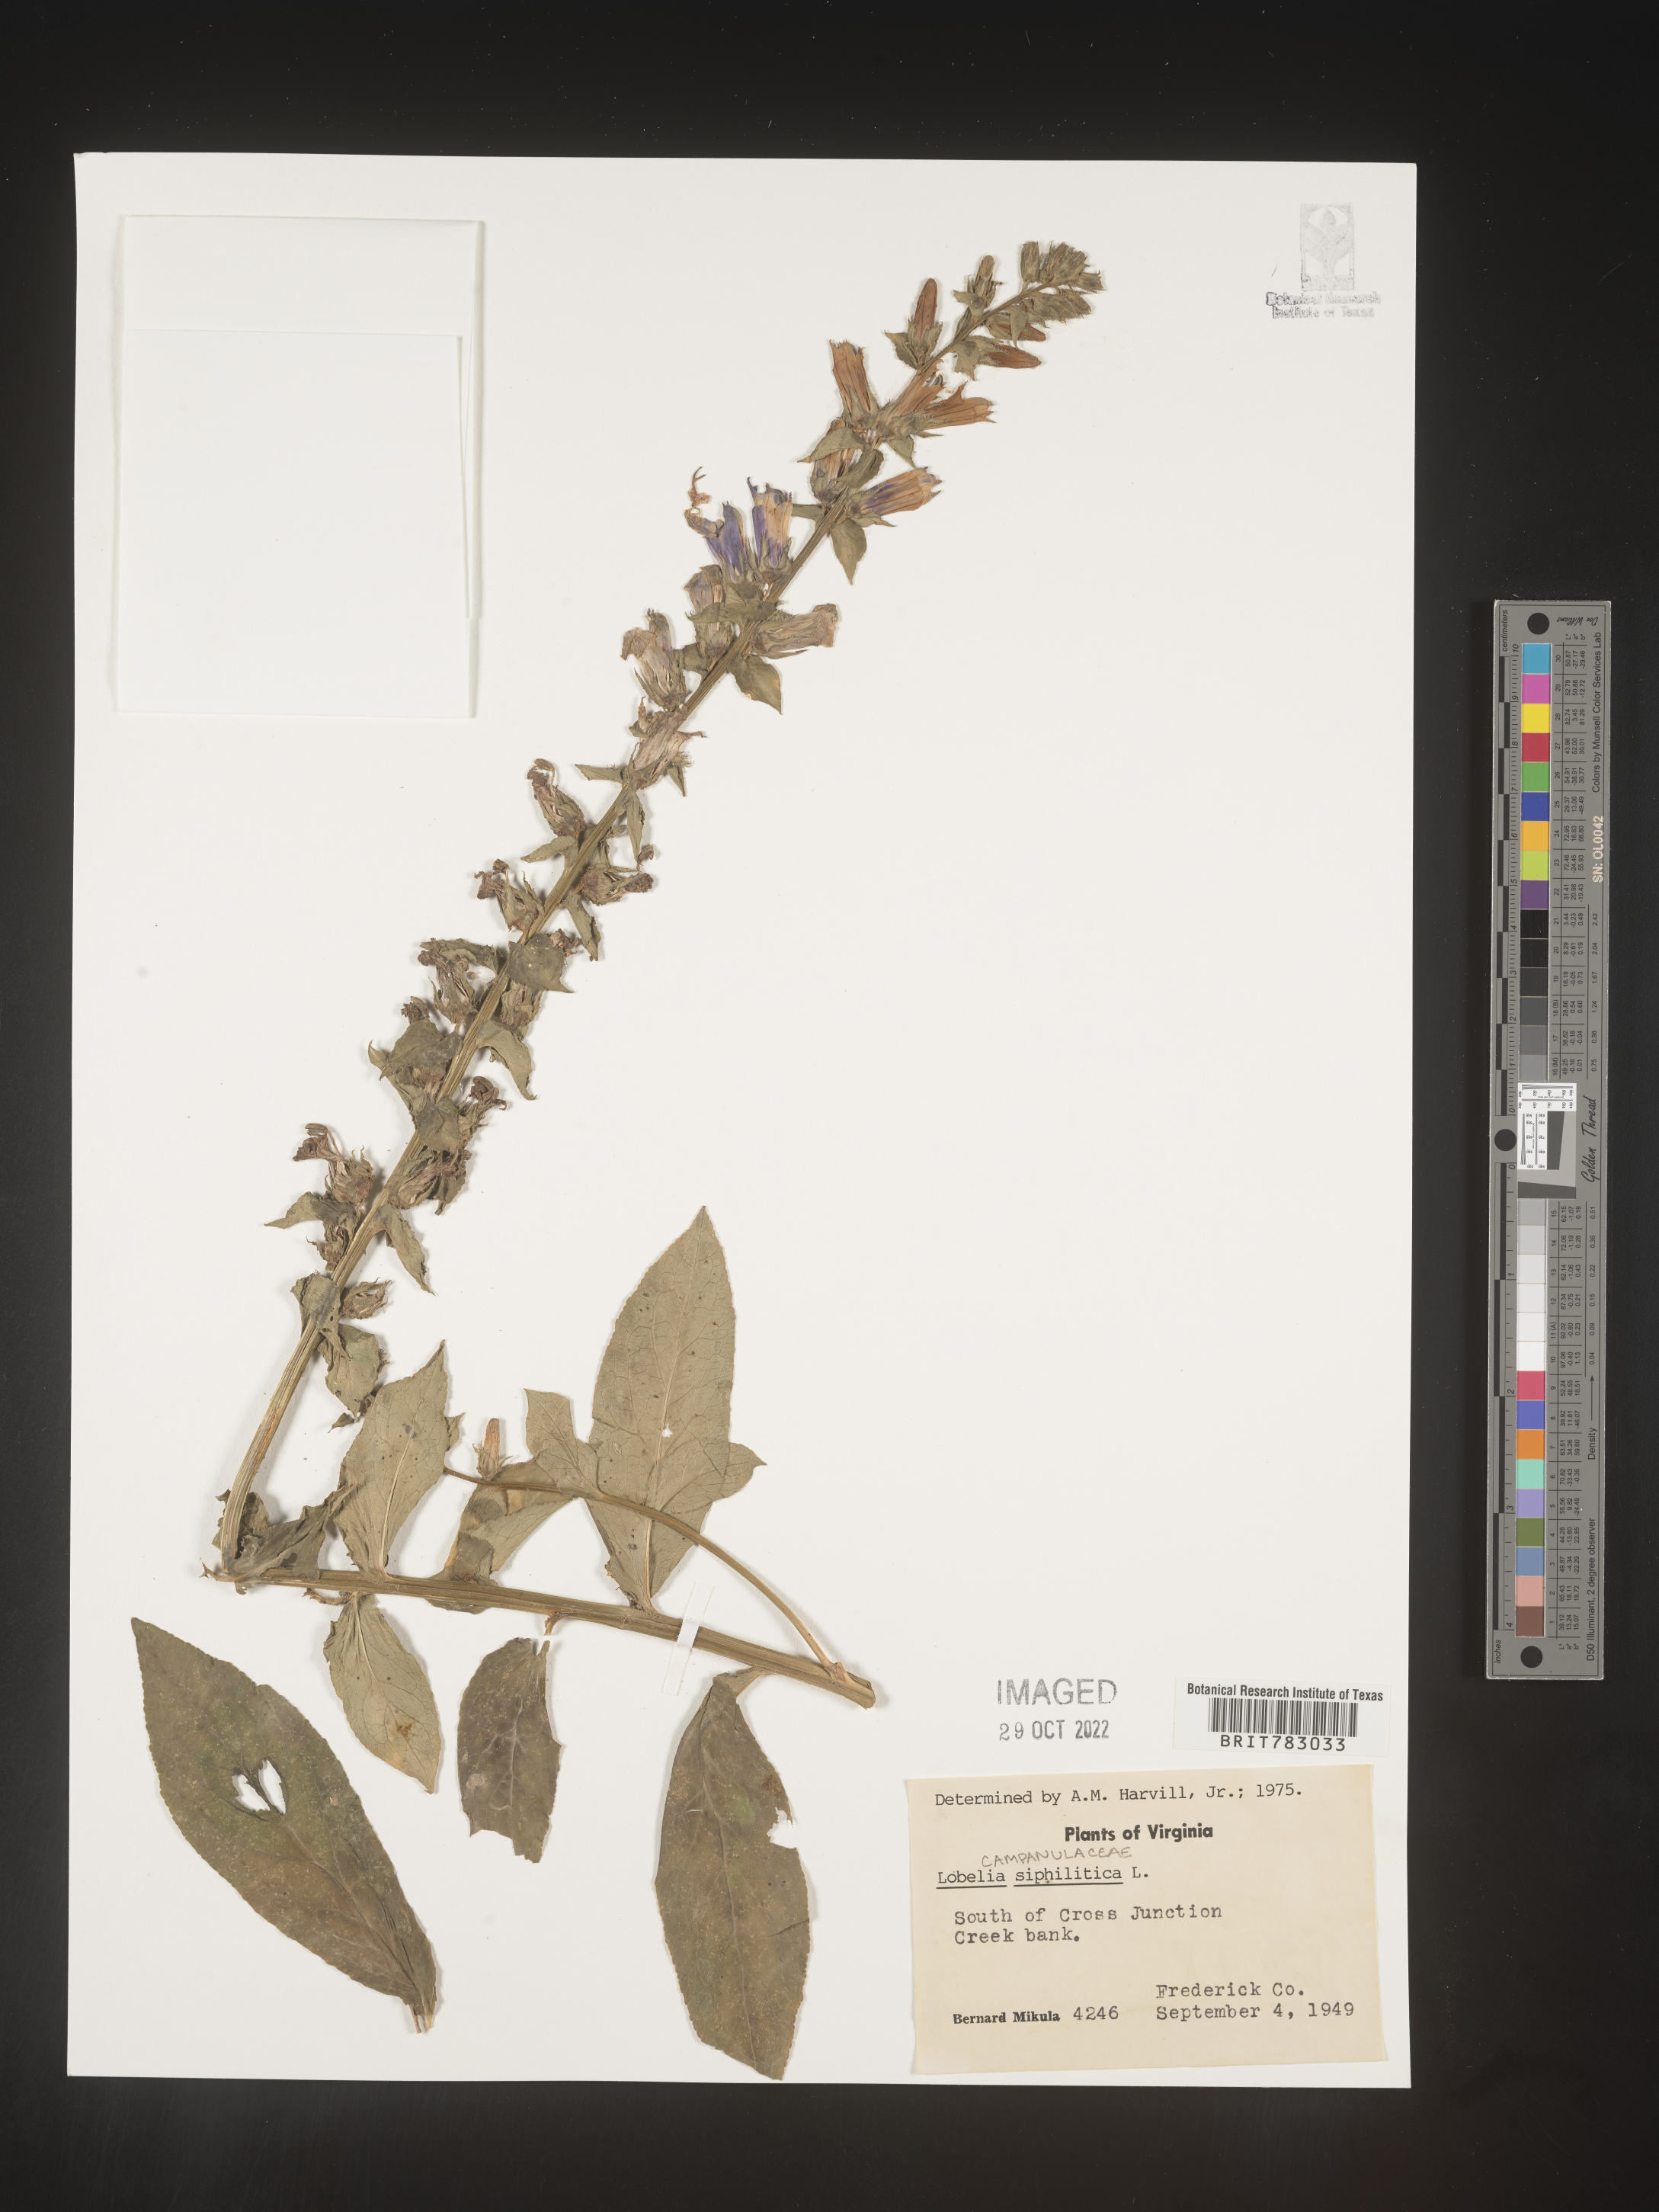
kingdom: Plantae
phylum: Tracheophyta
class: Magnoliopsida
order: Asterales
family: Campanulaceae
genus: Lobelia
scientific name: Lobelia siphilitica
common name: Great lobelia
